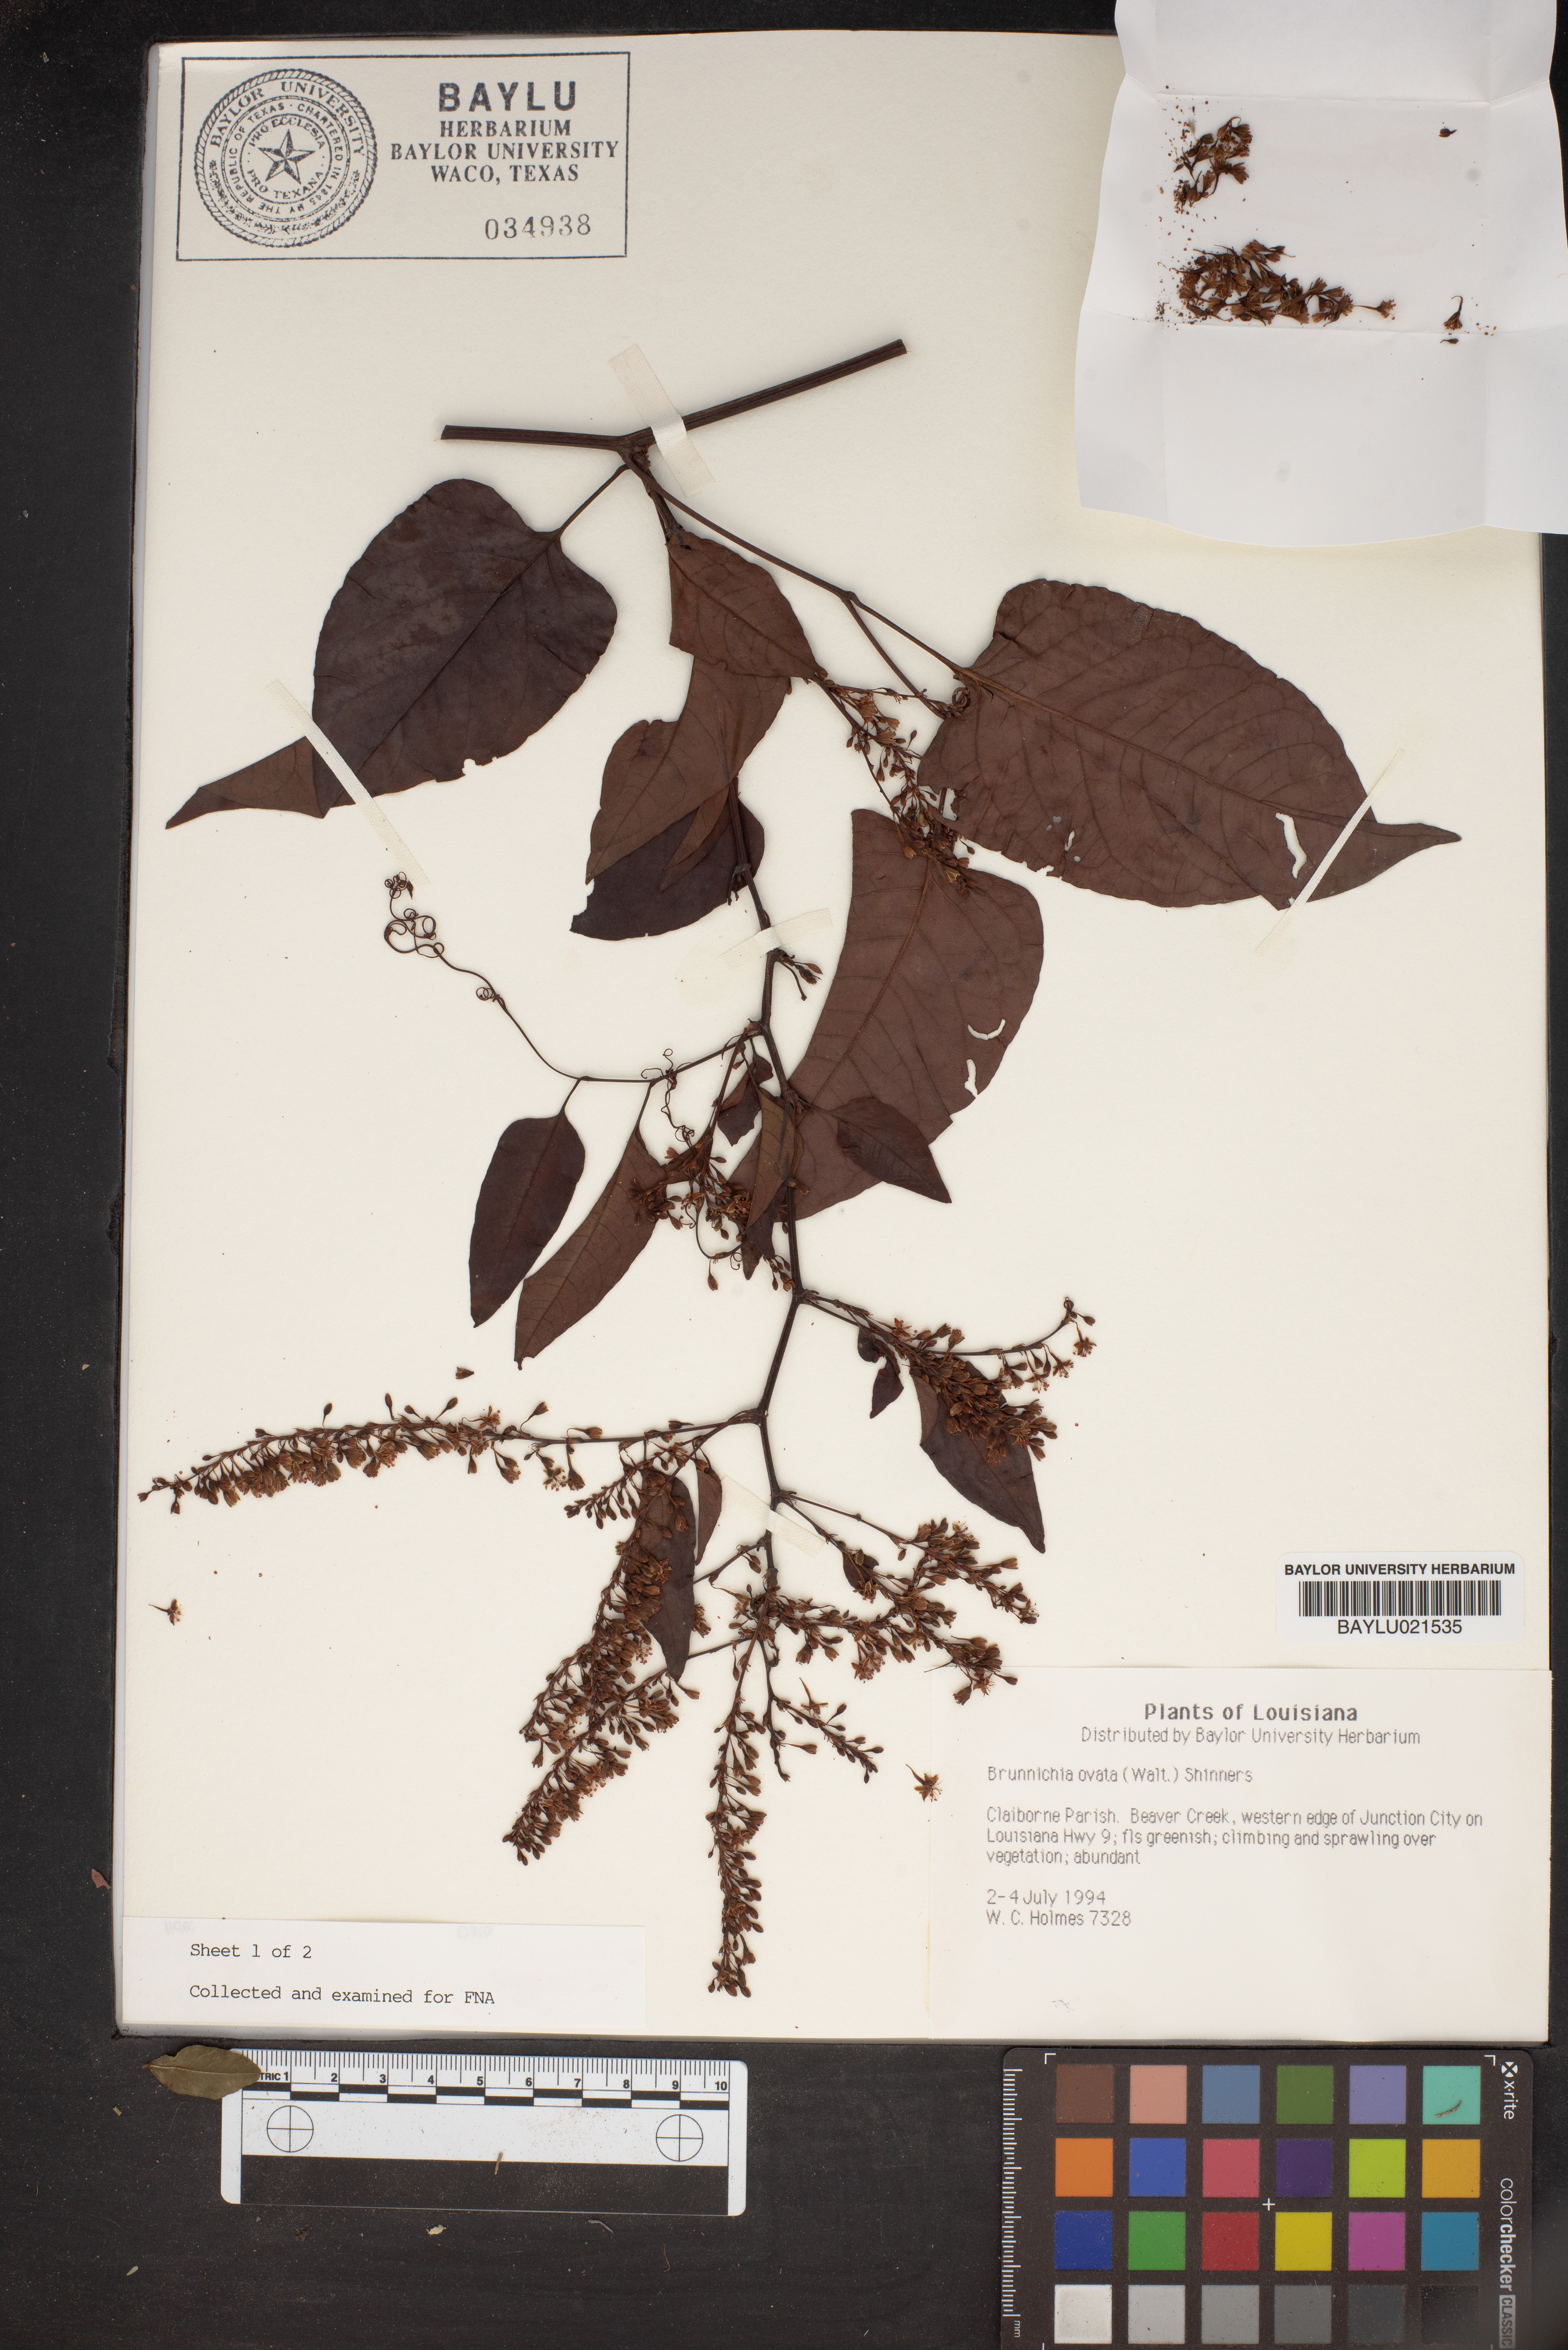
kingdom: Plantae
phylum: Tracheophyta
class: Magnoliopsida
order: Caryophyllales
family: Polygonaceae
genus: Brunnichia
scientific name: Brunnichia ovata
